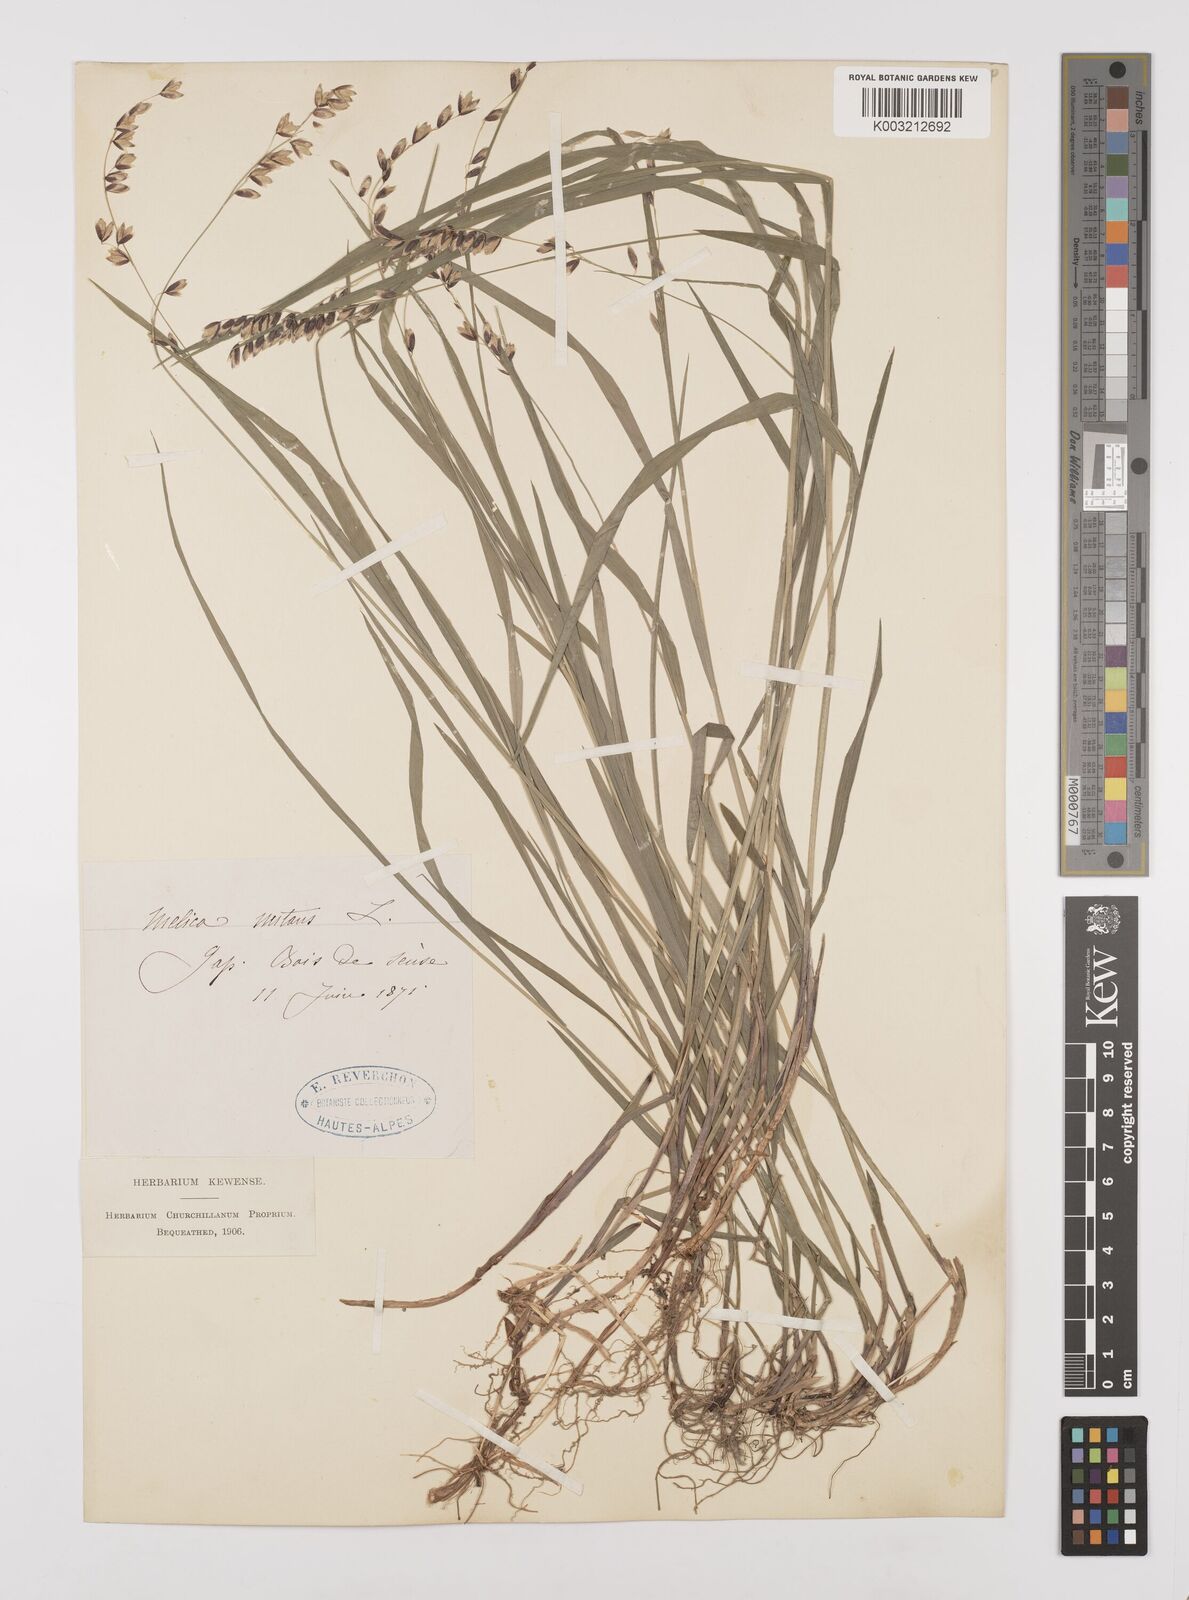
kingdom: Plantae
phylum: Tracheophyta
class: Liliopsida
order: Poales
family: Poaceae
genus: Melica
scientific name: Melica nutans
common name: Mountain melick
